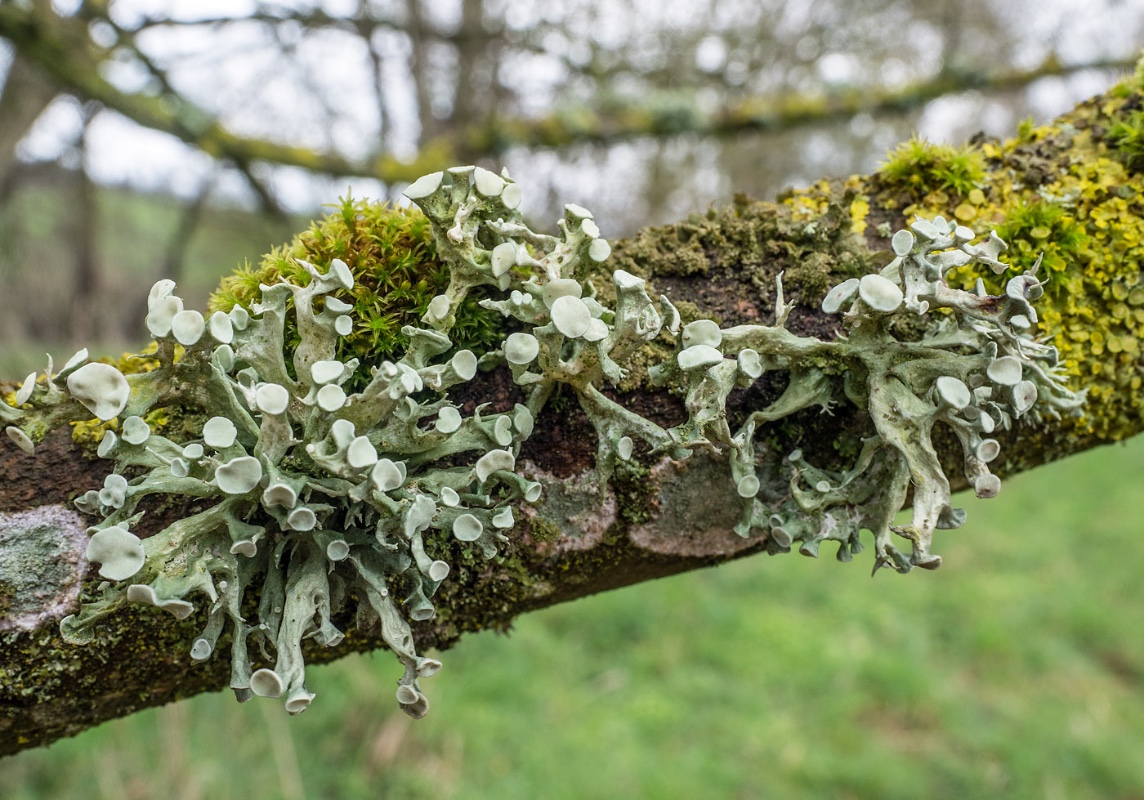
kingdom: Fungi
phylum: Ascomycota
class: Lecanoromycetes
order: Lecanorales
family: Ramalinaceae
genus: Ramalina
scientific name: Ramalina fastigiata
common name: tue-grenlav
